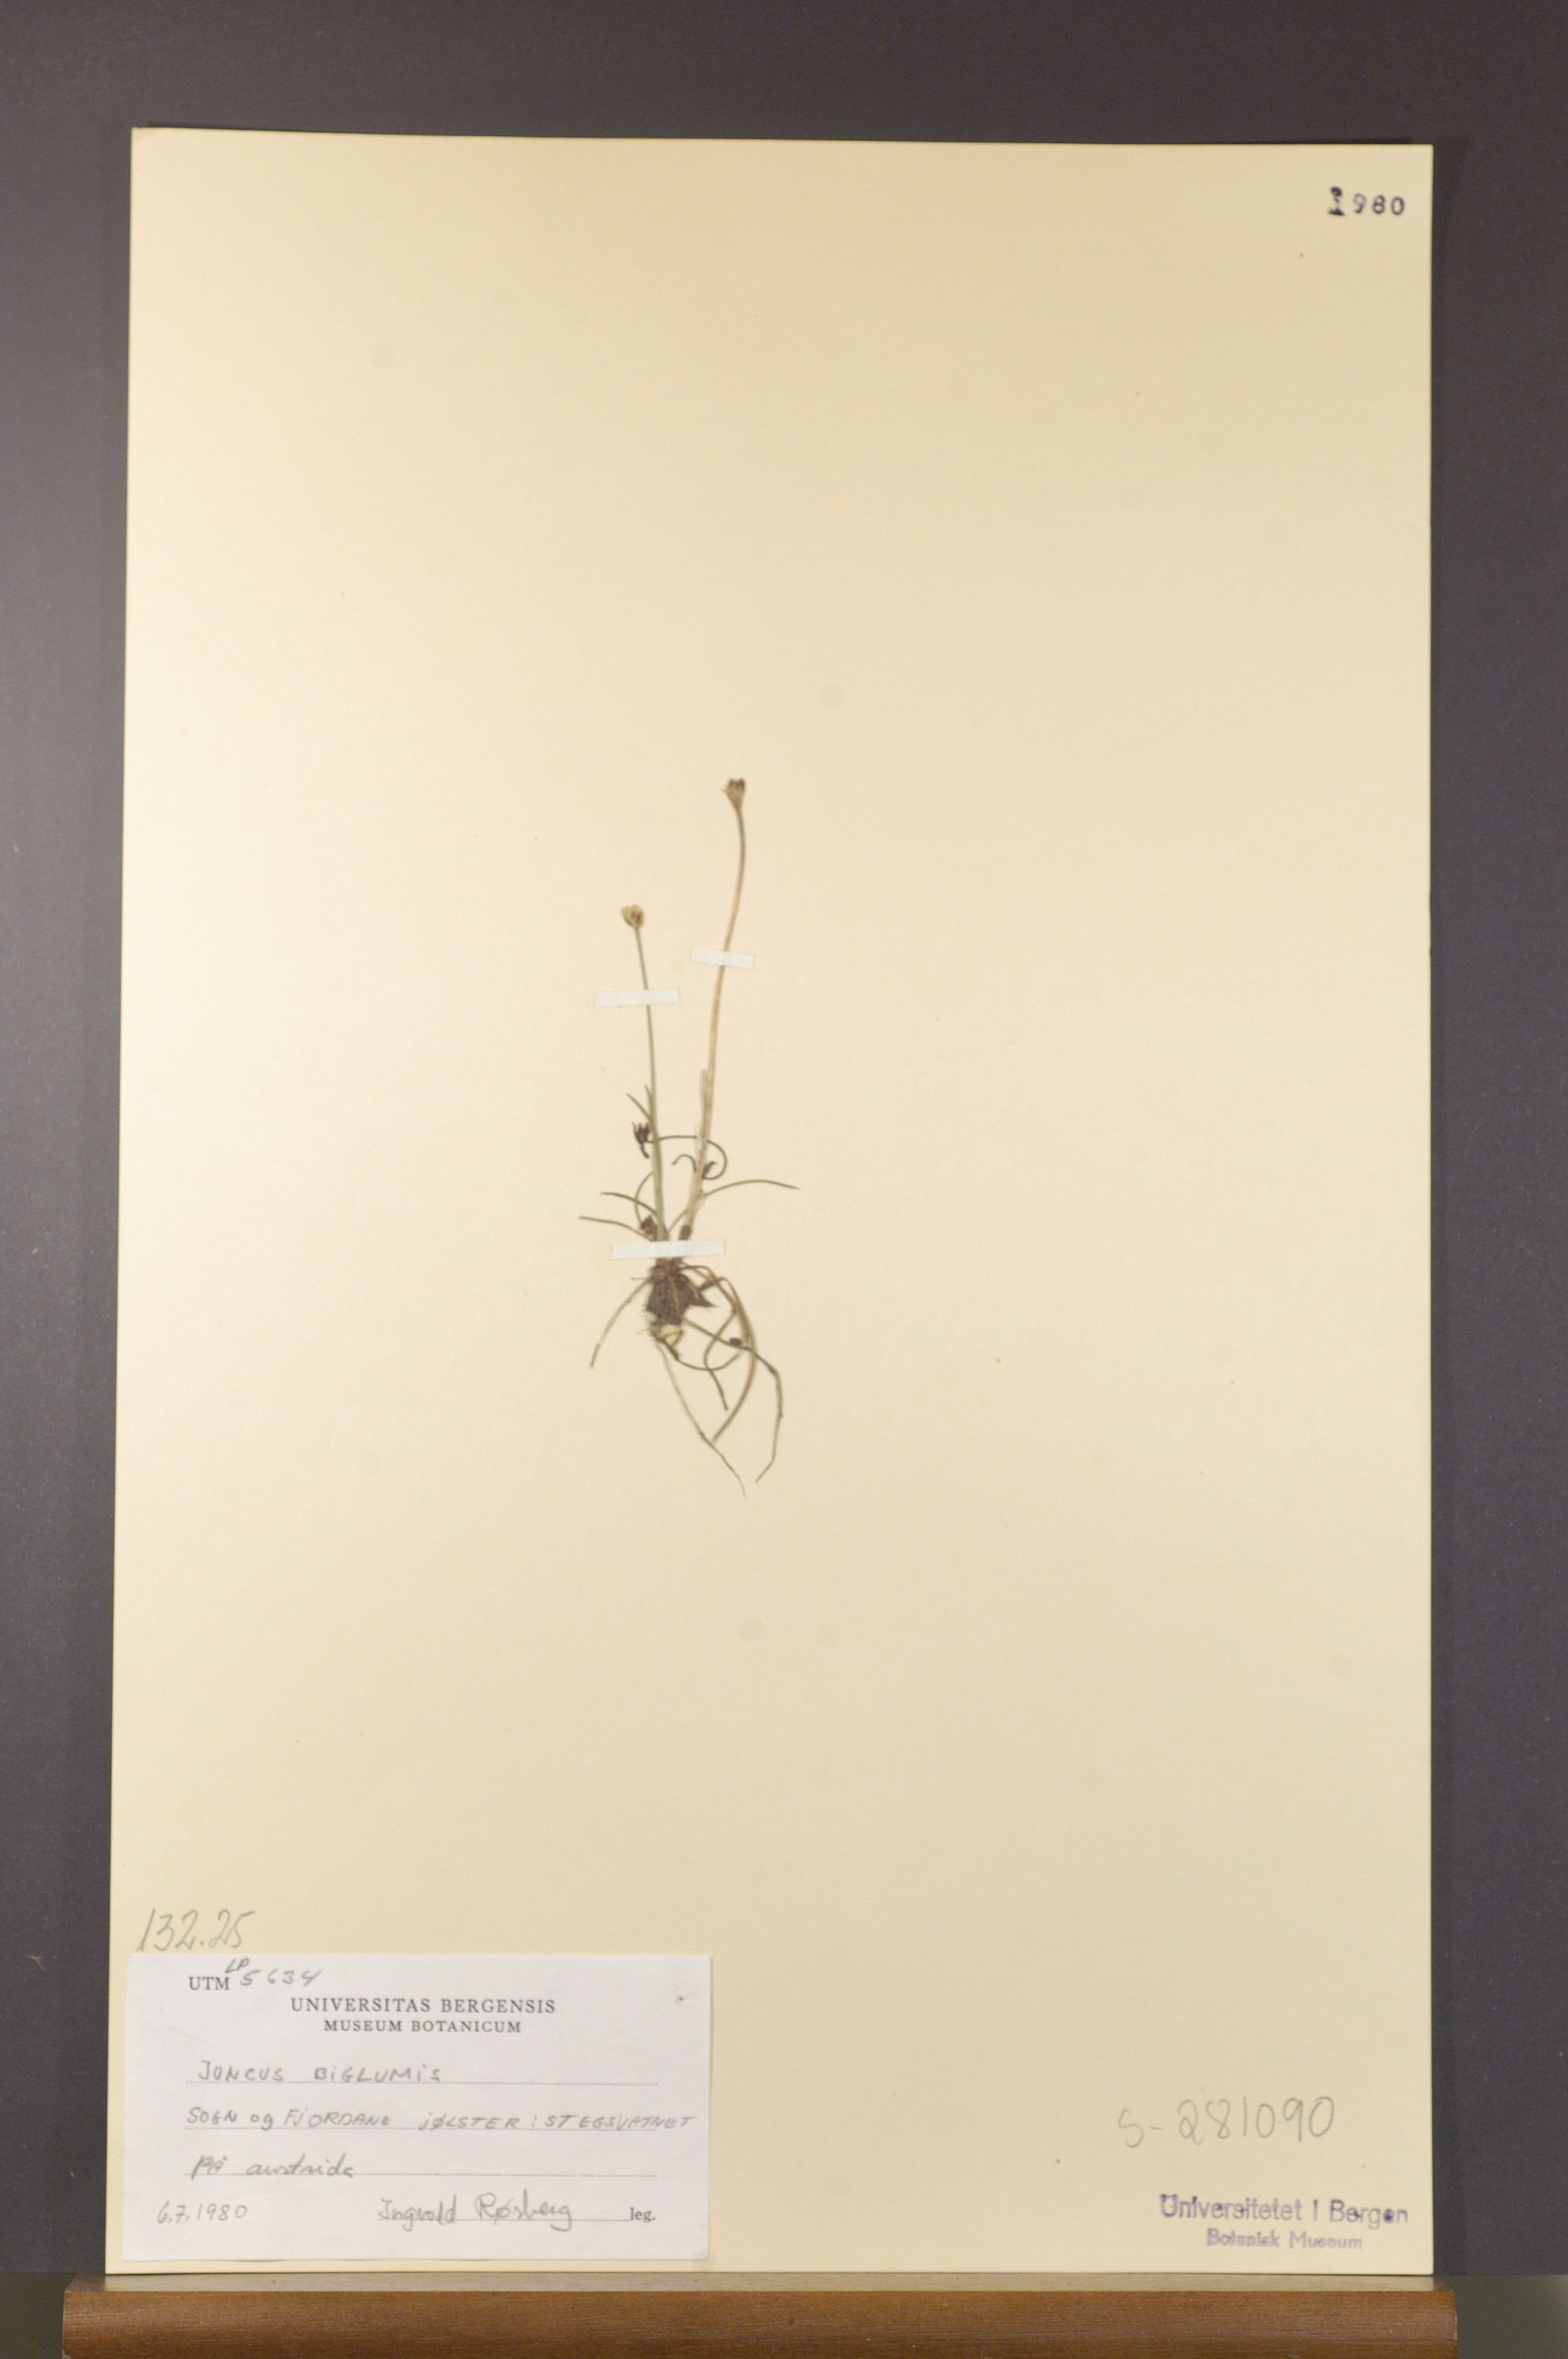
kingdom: Plantae
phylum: Tracheophyta
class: Liliopsida
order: Poales
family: Juncaceae
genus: Juncus
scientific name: Juncus biglumis
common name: Two-flowered rush
